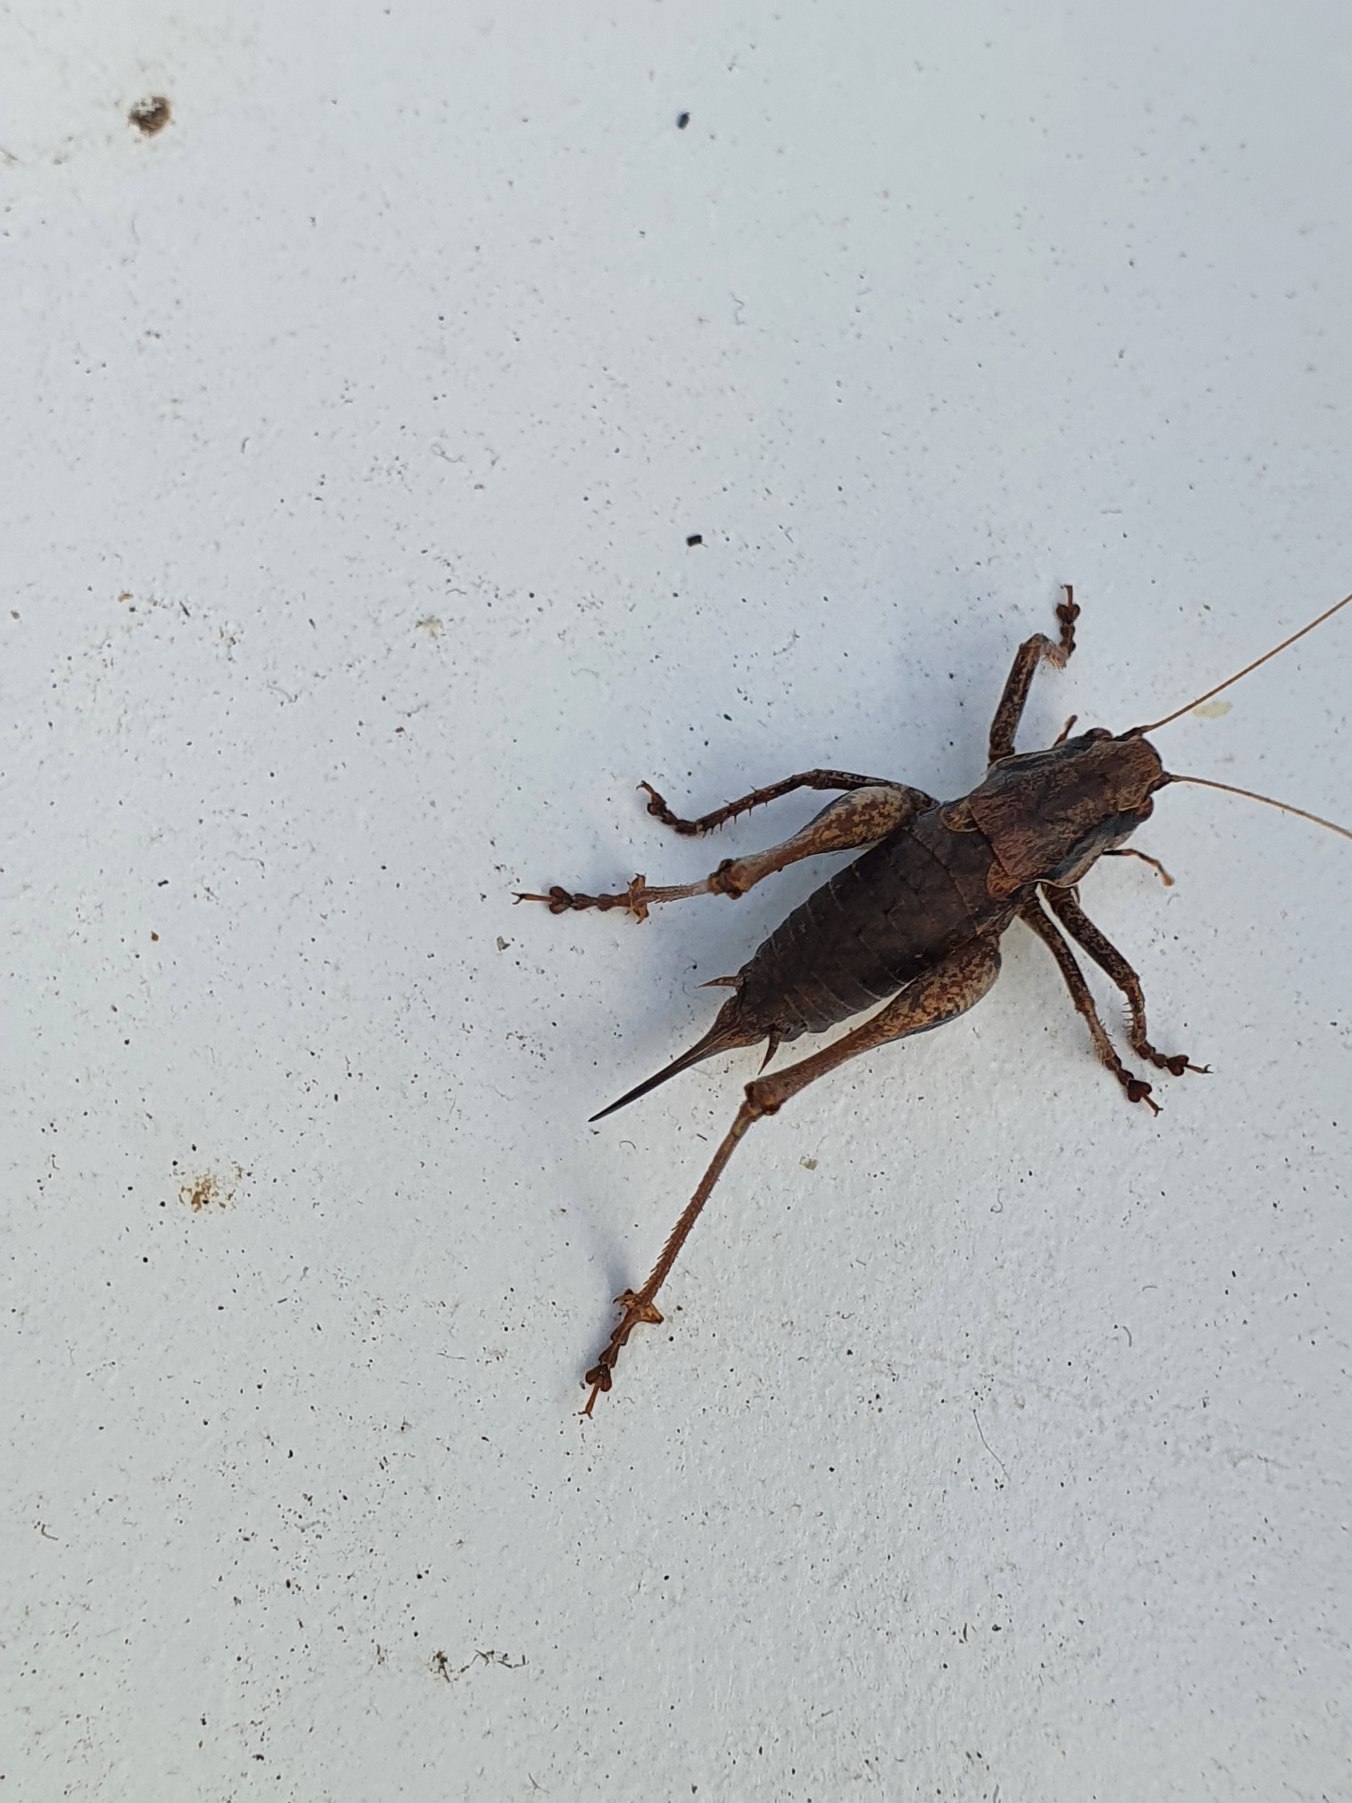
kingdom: Animalia
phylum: Arthropoda
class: Insecta
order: Orthoptera
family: Tettigoniidae
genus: Pholidoptera
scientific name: Pholidoptera griseoaptera
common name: Buskgræshoppe
